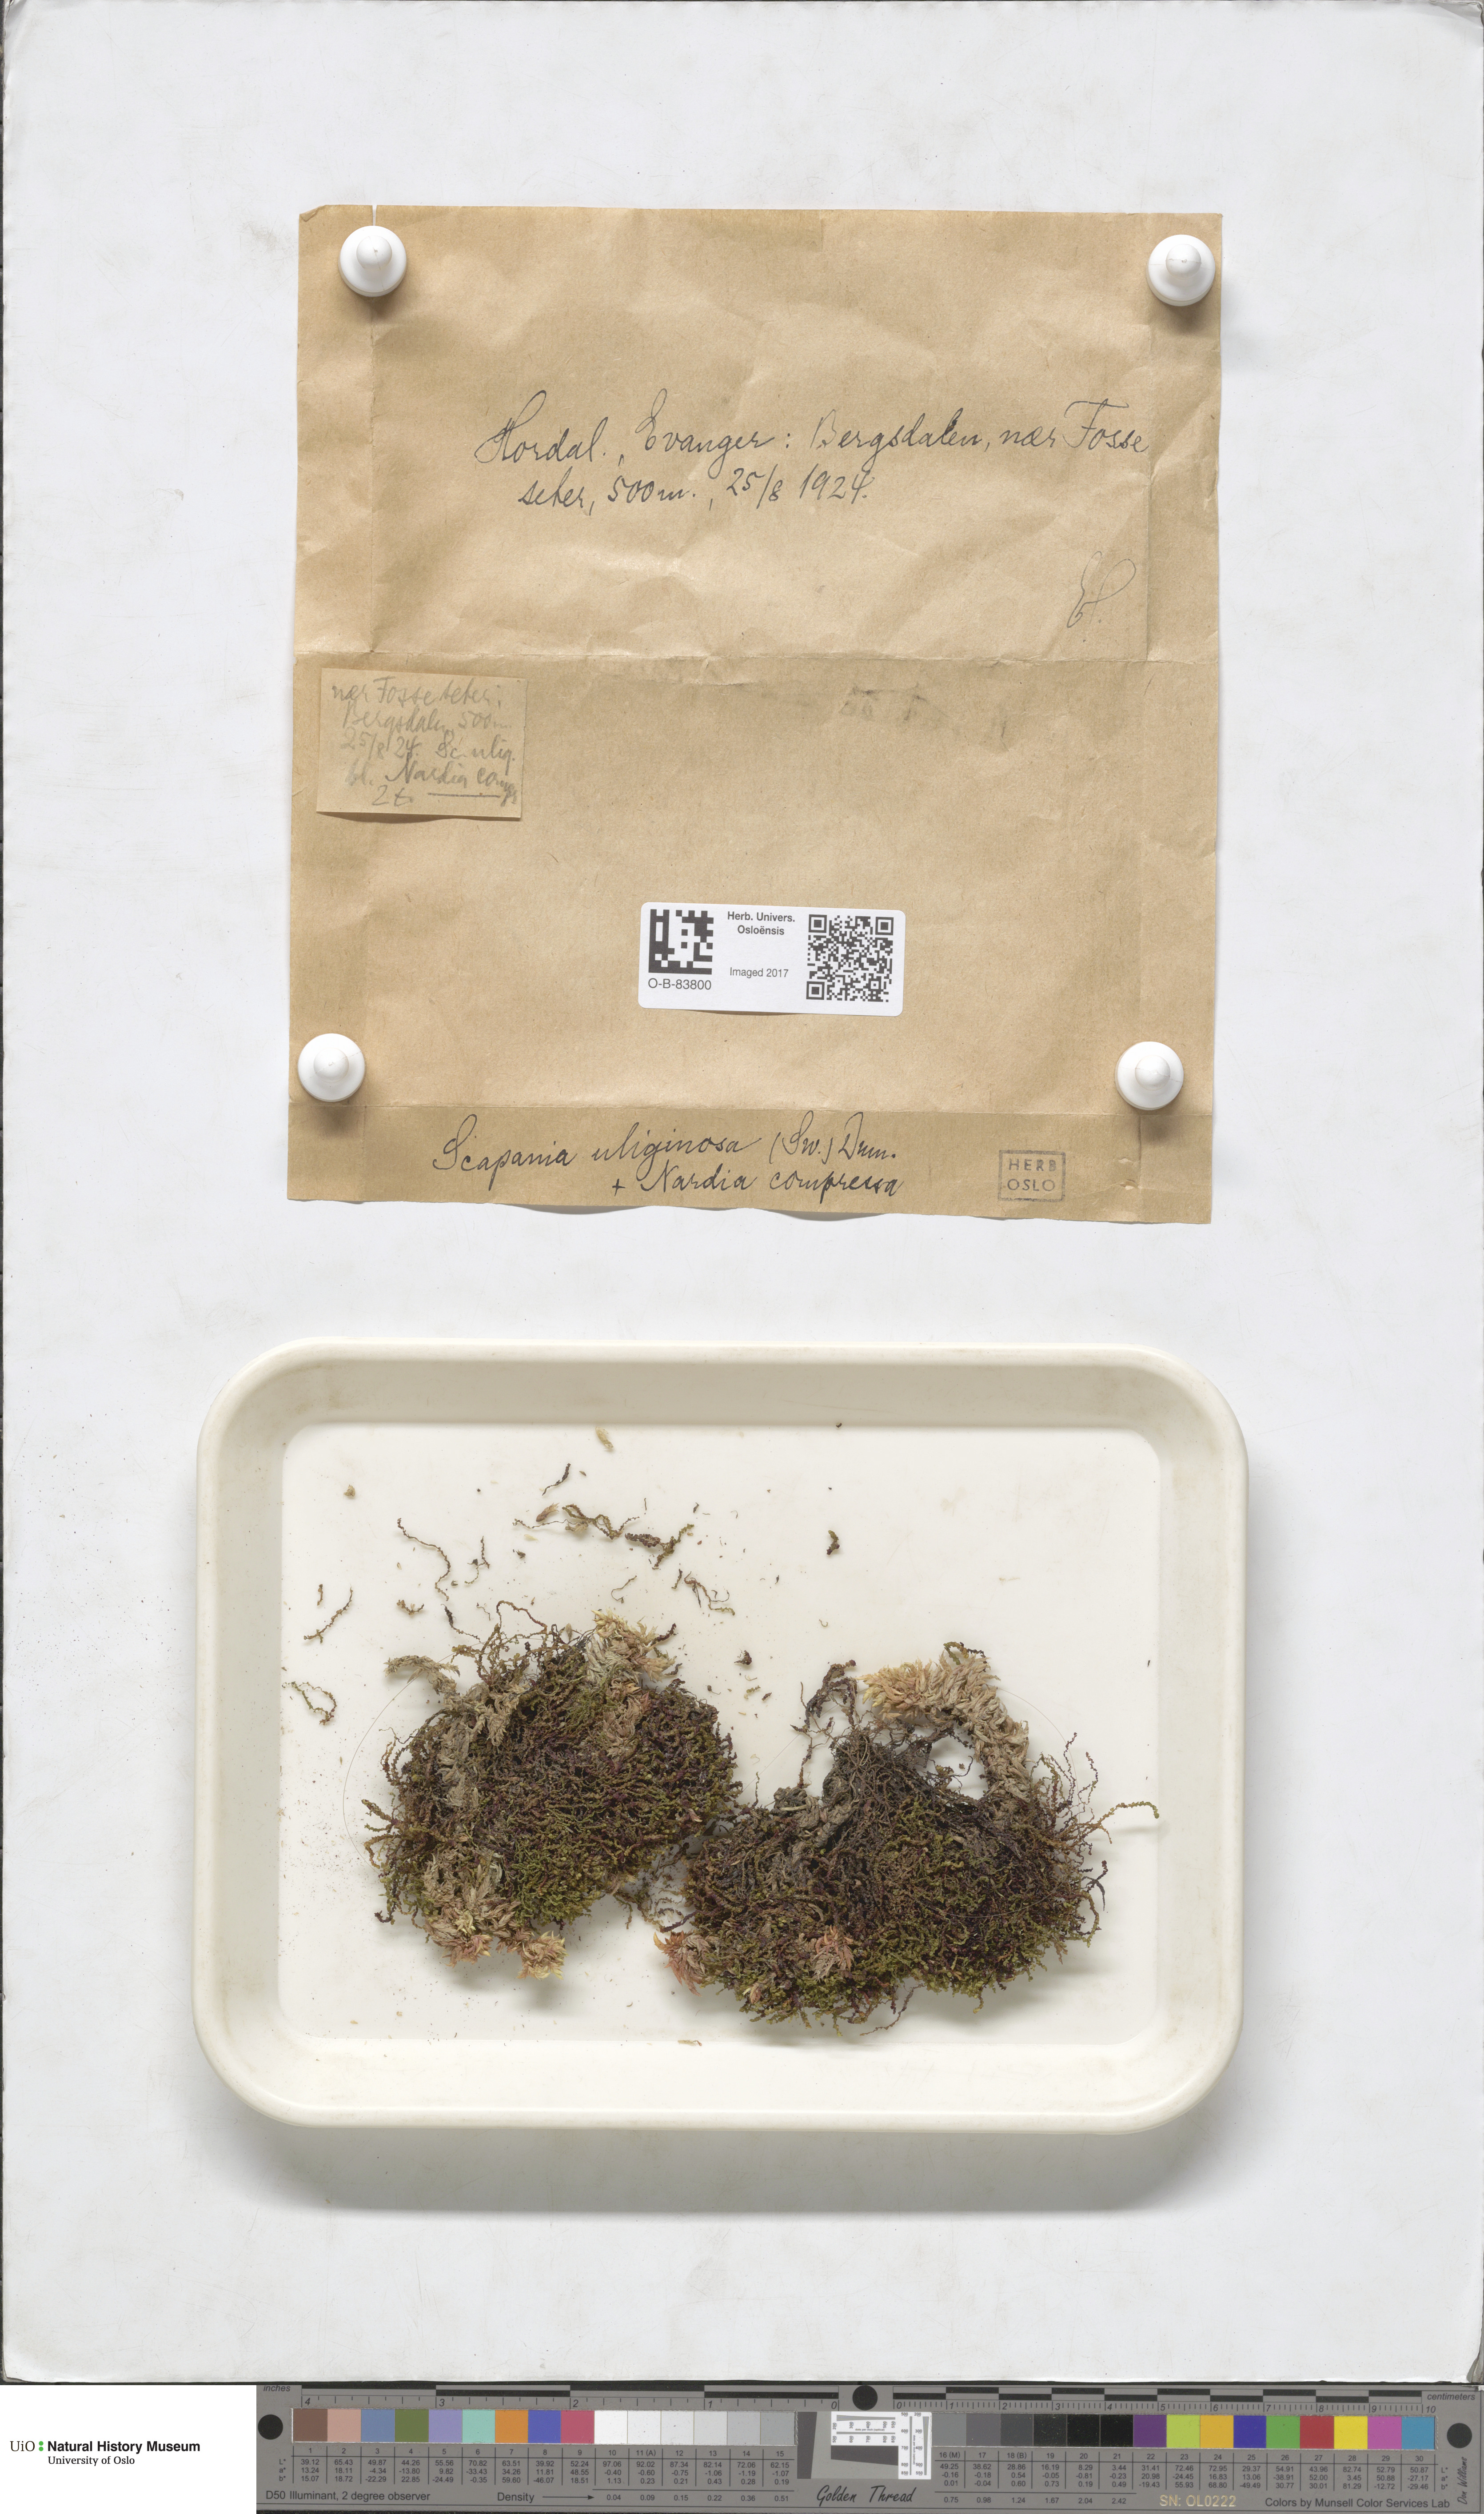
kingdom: Plantae
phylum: Marchantiophyta
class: Jungermanniopsida
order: Jungermanniales
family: Scapaniaceae
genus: Scapania
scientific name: Scapania uliginosa
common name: Marsh earwort
